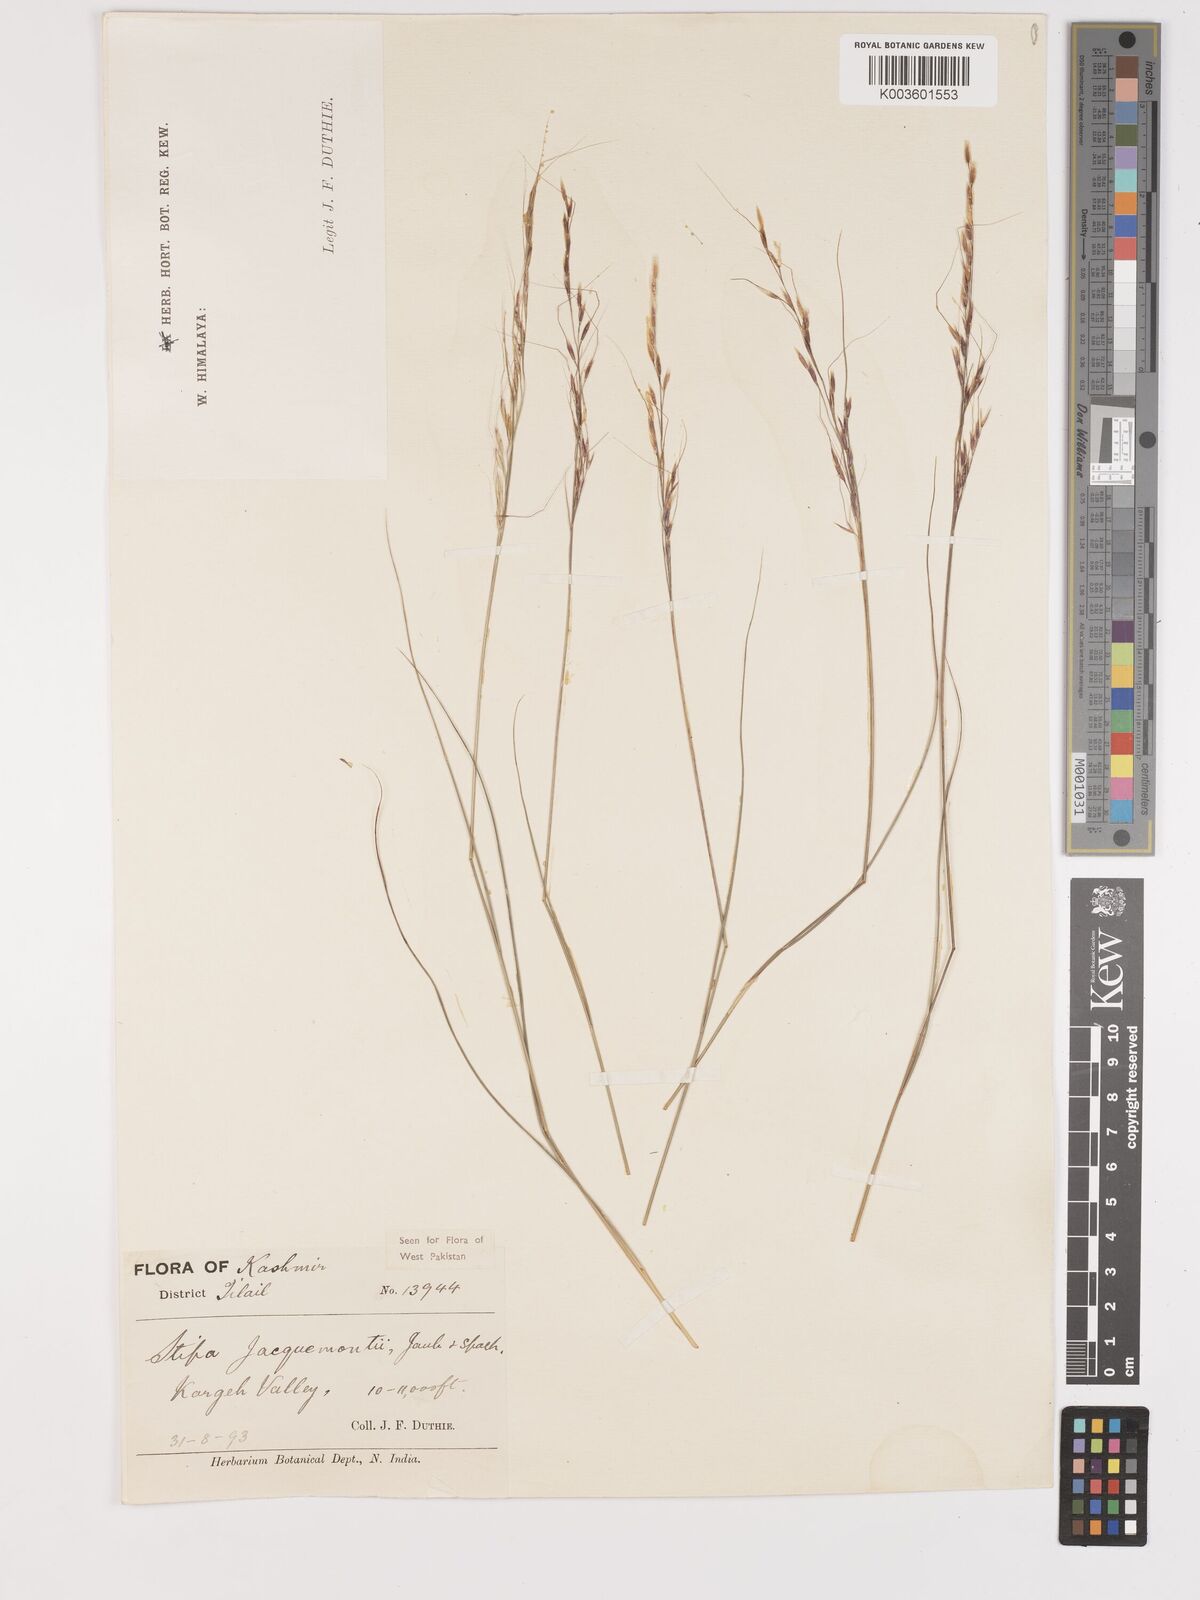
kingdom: Plantae
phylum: Tracheophyta
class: Liliopsida
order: Poales
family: Poaceae
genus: Achnatherum
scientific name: Achnatherum jacquemontii
